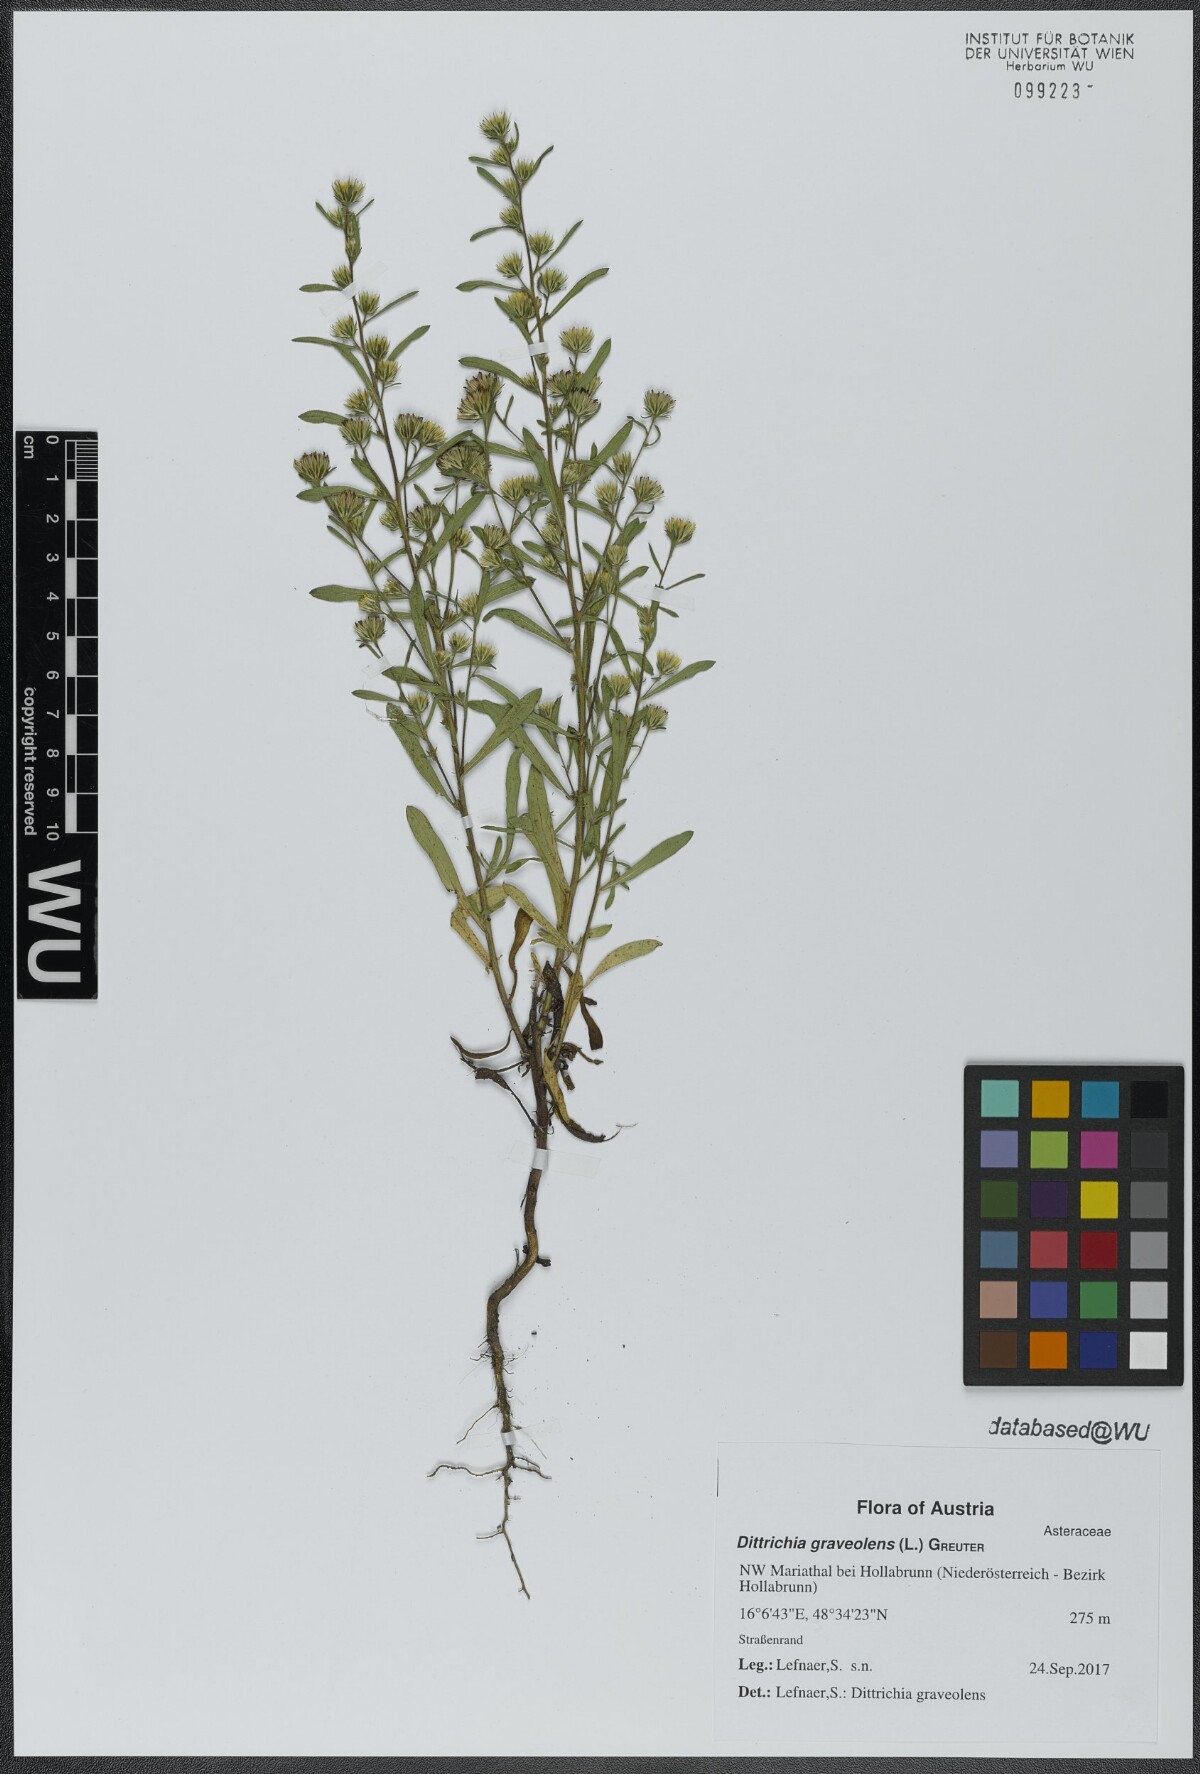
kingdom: Plantae
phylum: Tracheophyta
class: Magnoliopsida
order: Asterales
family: Asteraceae
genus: Dittrichia
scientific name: Dittrichia graveolens
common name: Stinking fleabane
